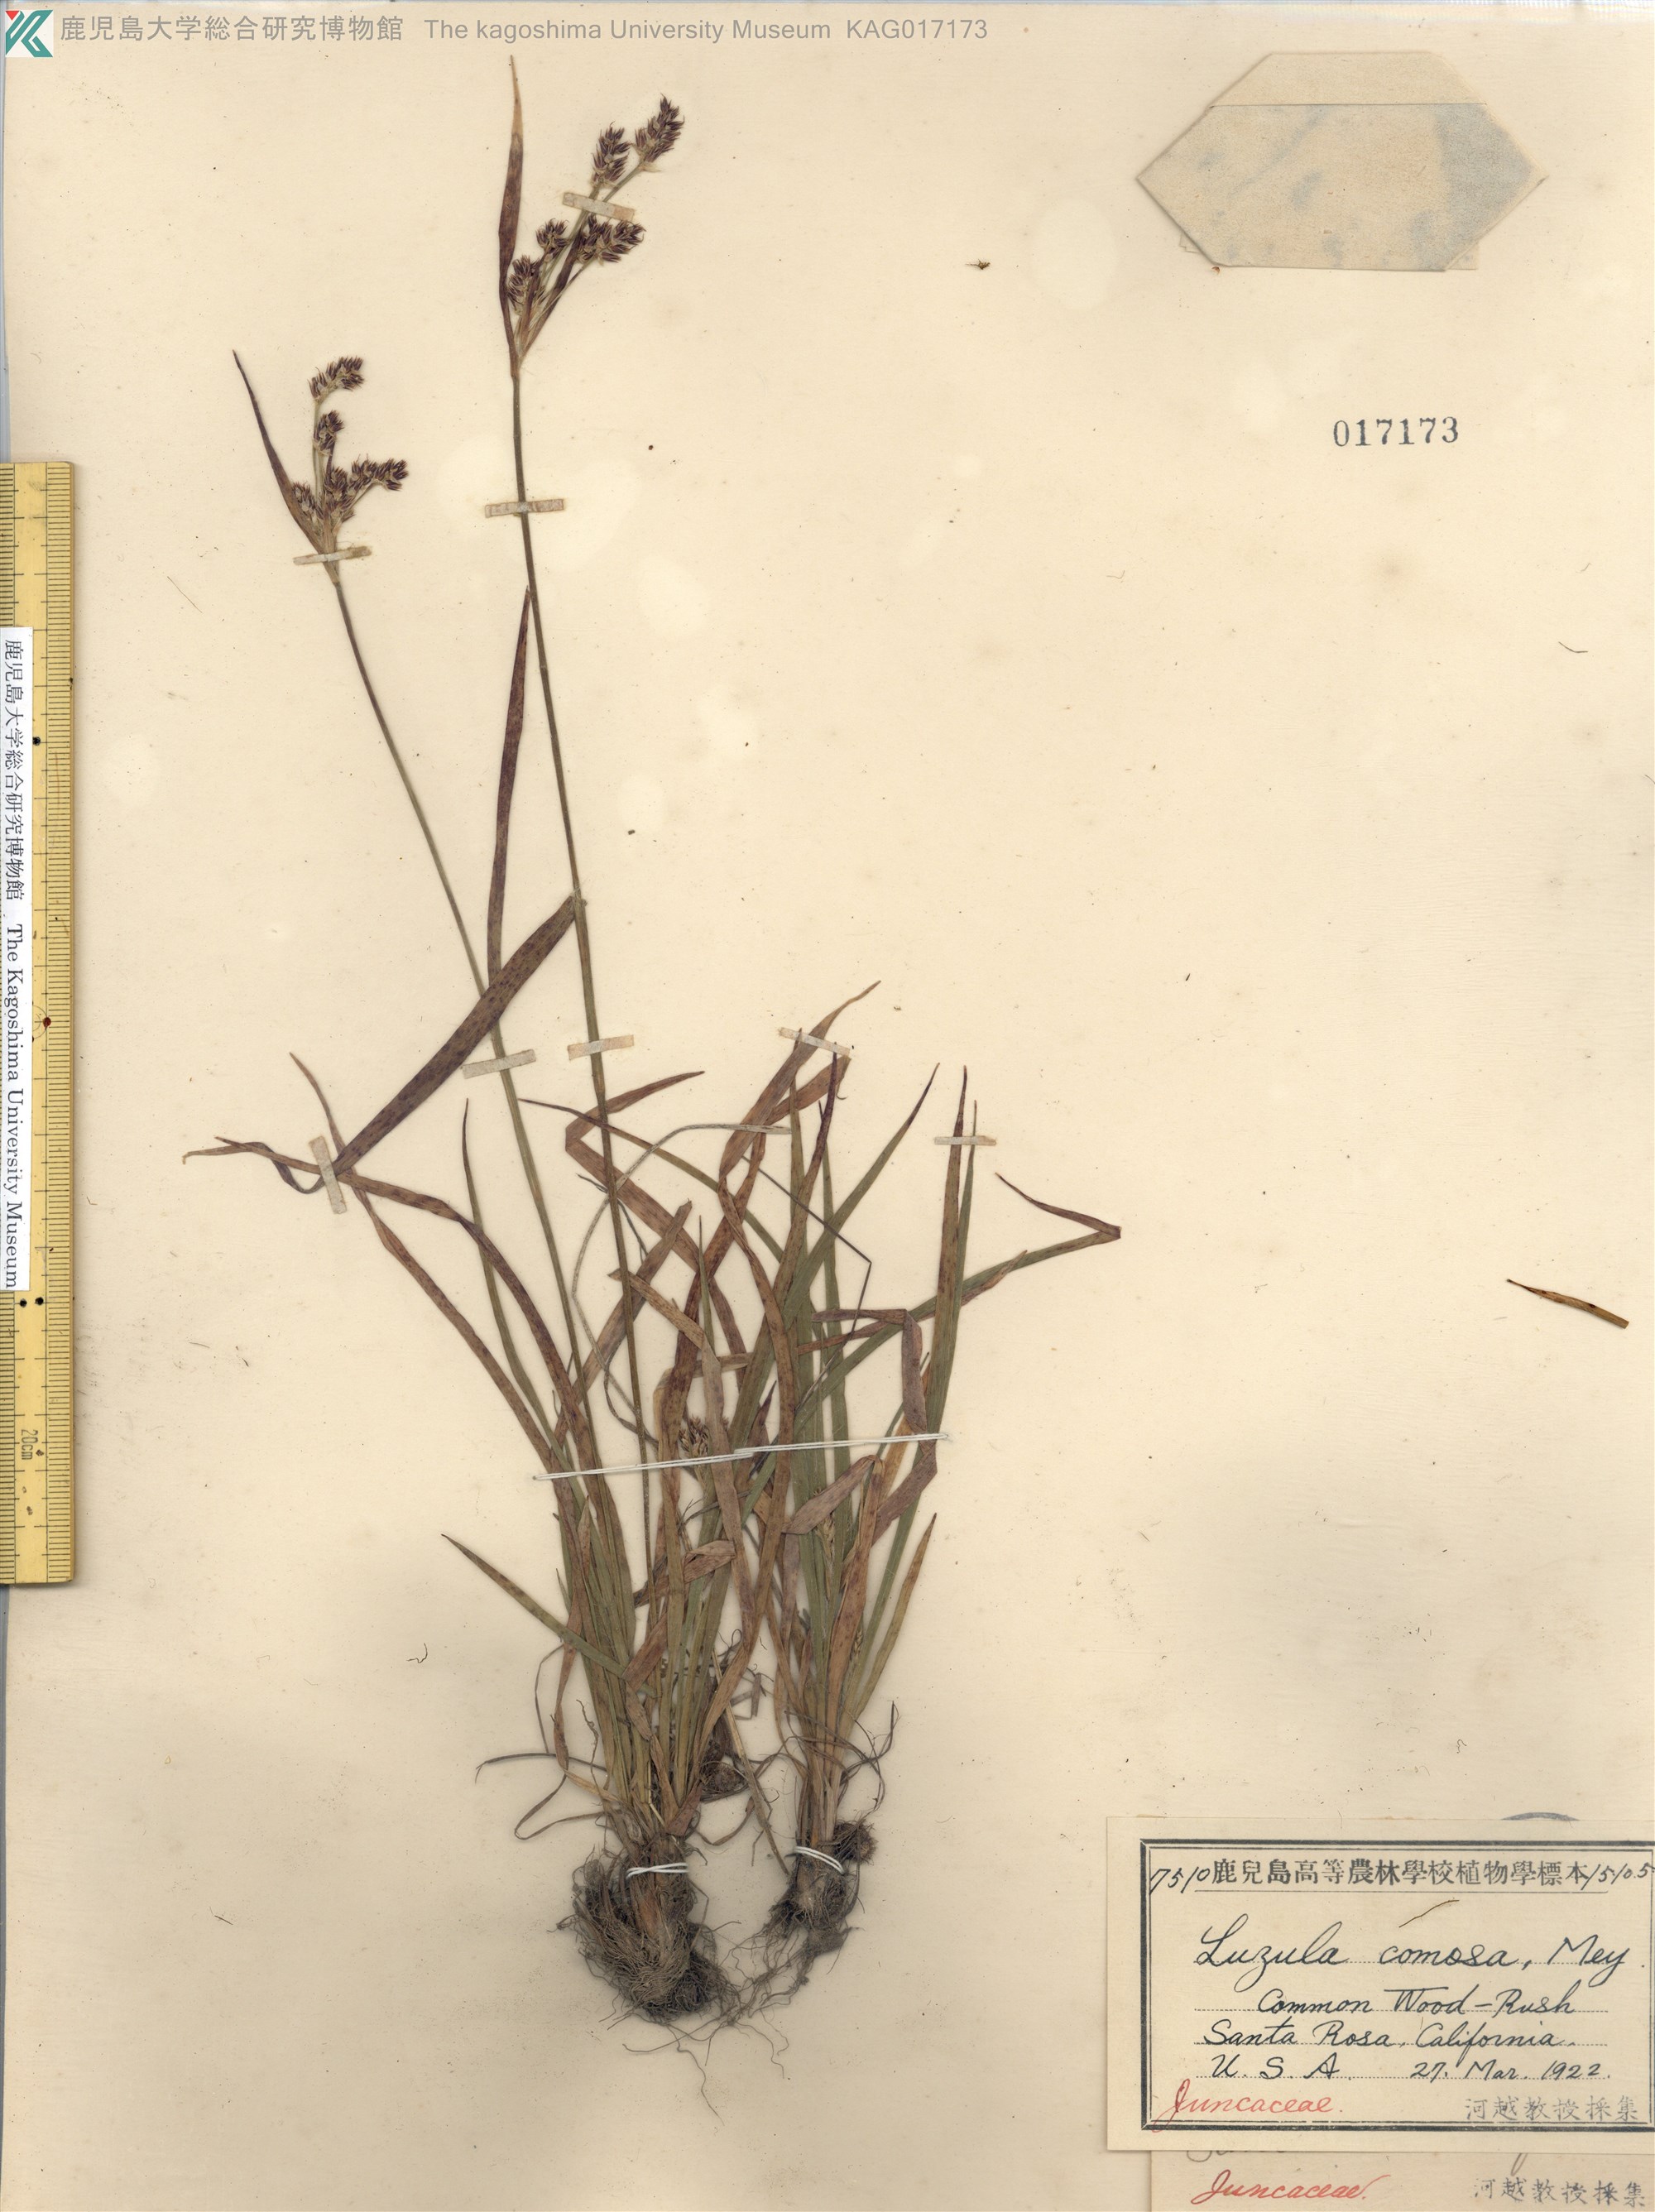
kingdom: Plantae
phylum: Tracheophyta
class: Liliopsida
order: Poales
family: Juncaceae
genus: Luzula
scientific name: Luzula comosa
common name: Pacific woodrush
